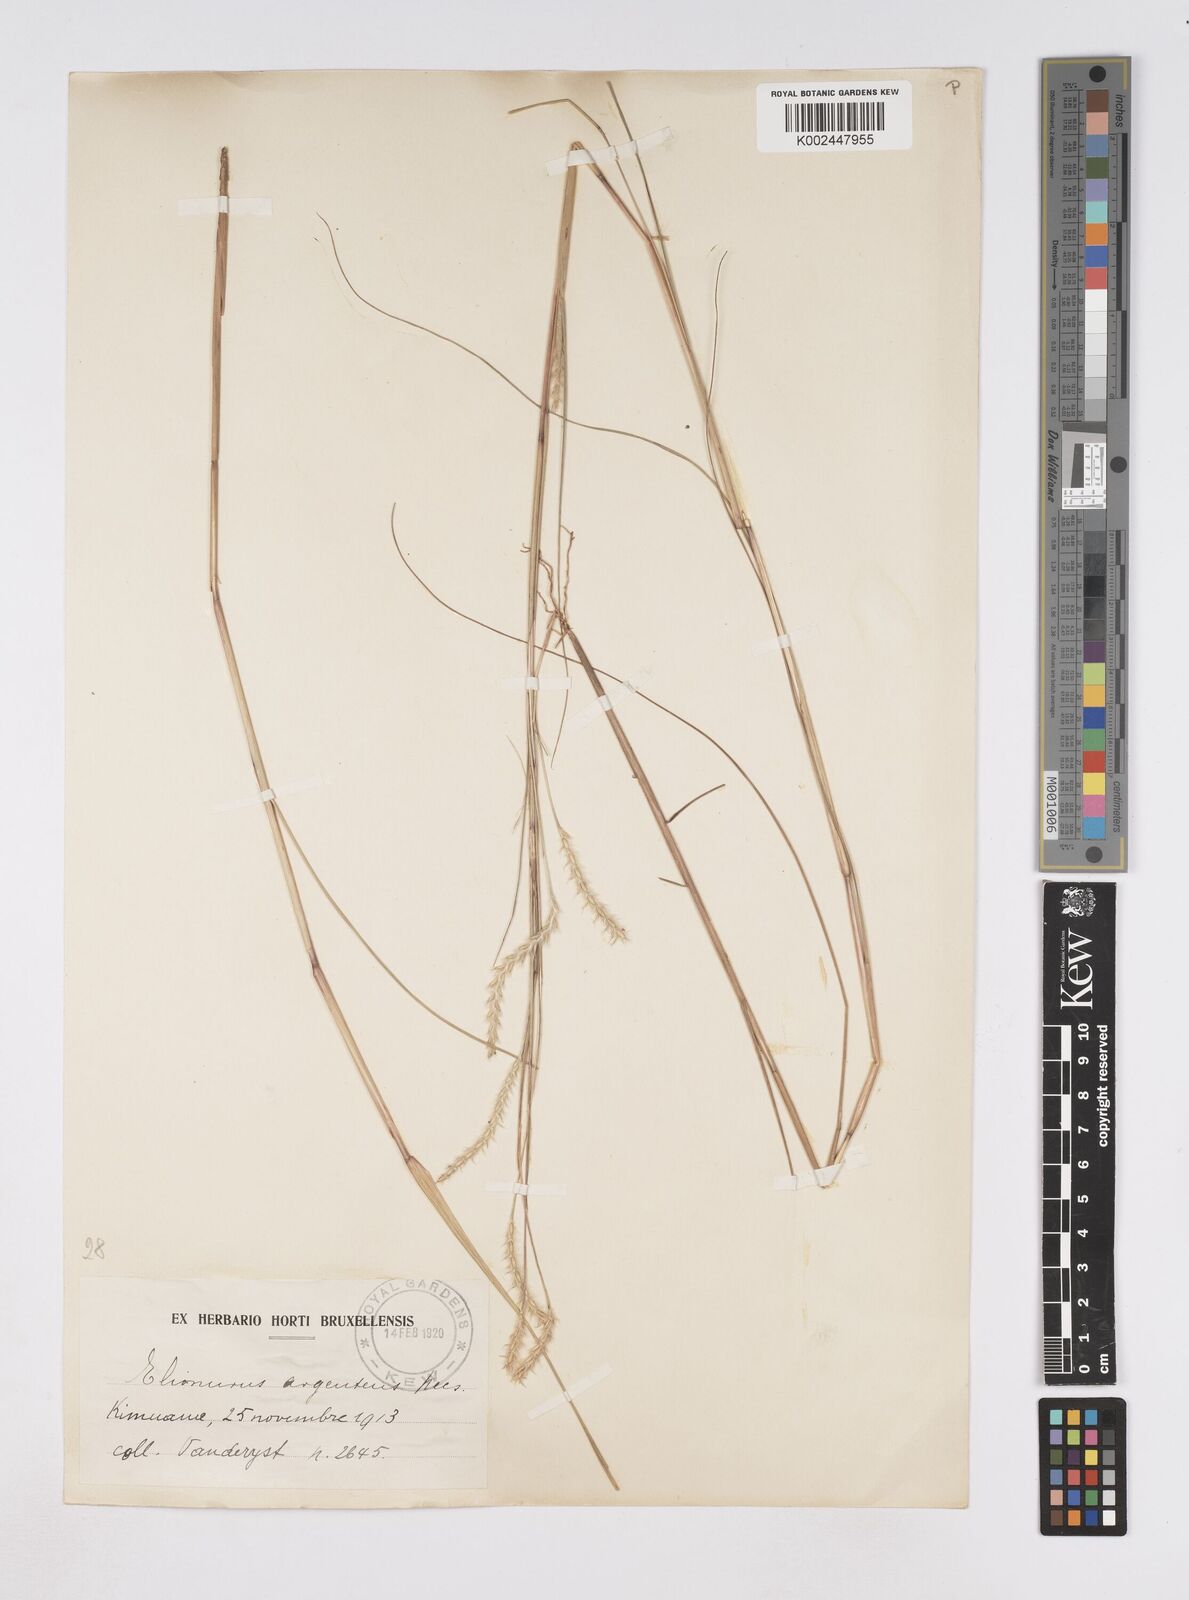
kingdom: Plantae
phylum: Tracheophyta
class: Liliopsida
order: Poales
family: Poaceae
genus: Elionurus
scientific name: Elionurus hensii
